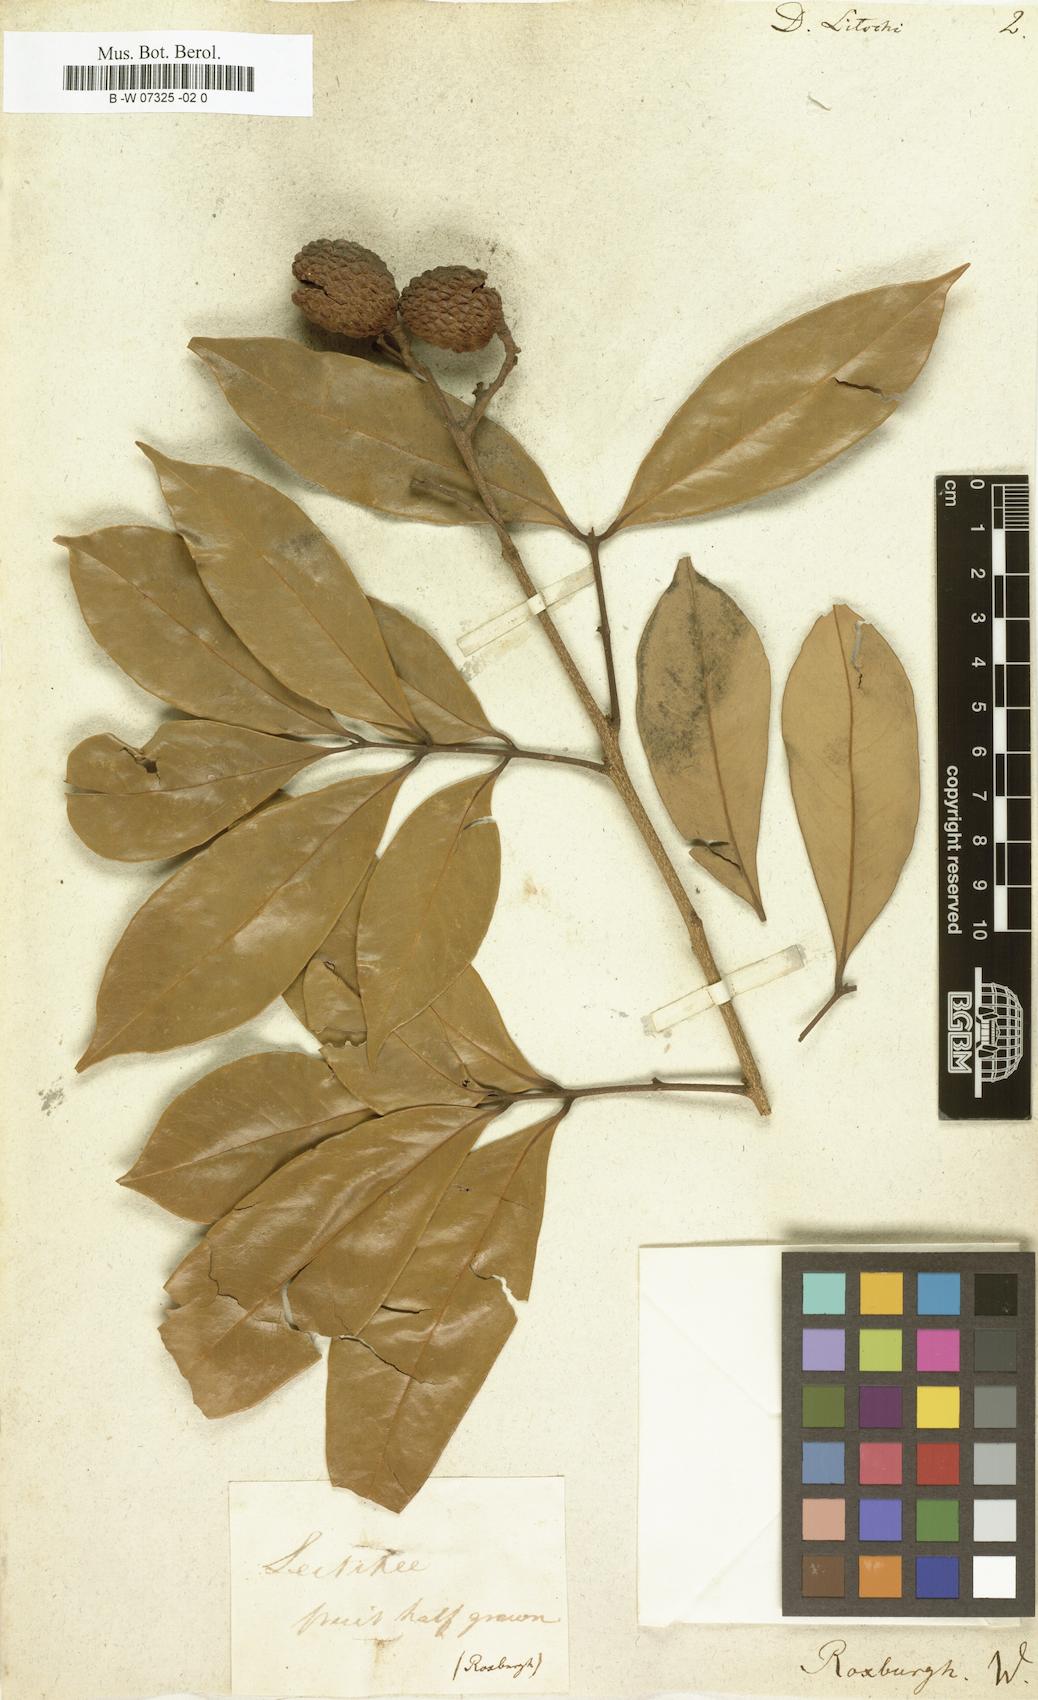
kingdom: Plantae
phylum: Tracheophyta
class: Magnoliopsida
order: Sapindales
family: Sapindaceae
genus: Litchi
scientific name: Litchi chinensis
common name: Litchi
